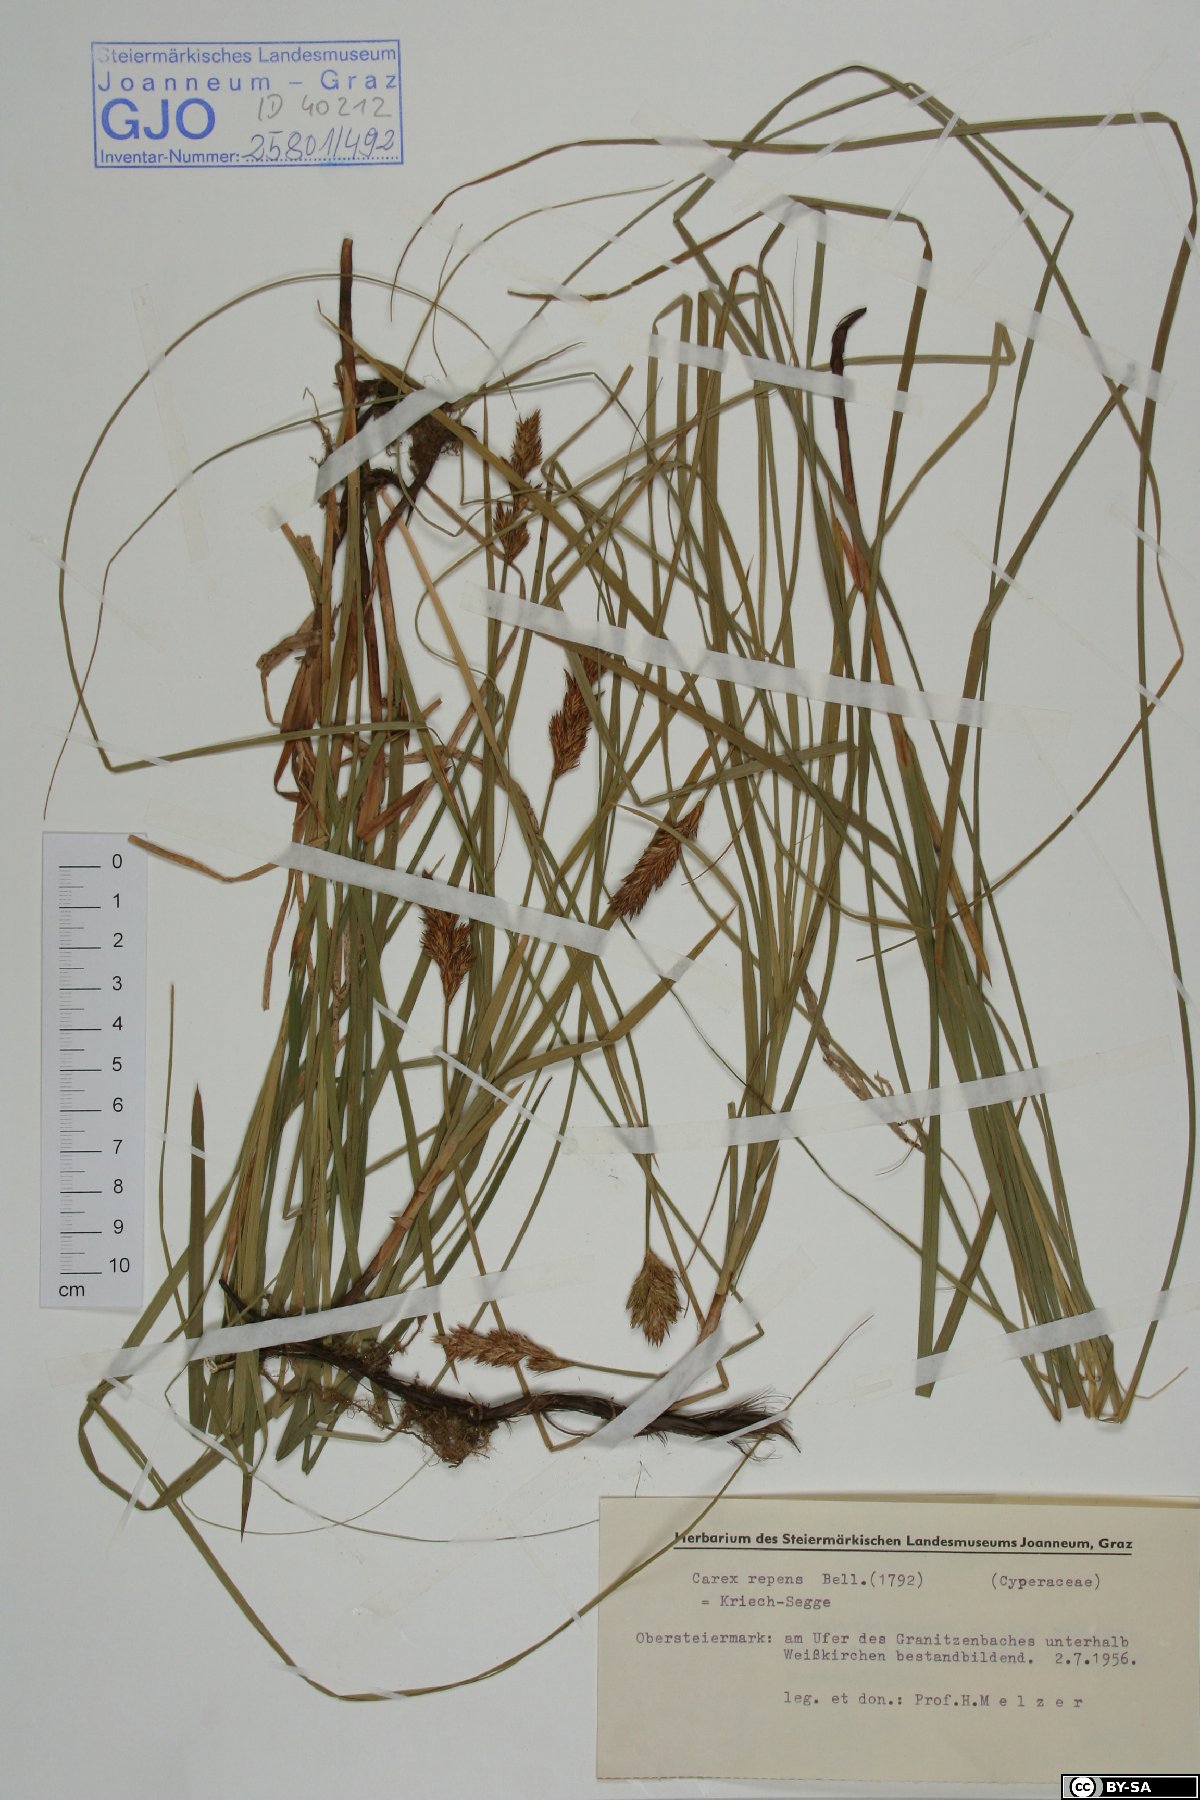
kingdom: Plantae
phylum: Tracheophyta
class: Liliopsida
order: Poales
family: Cyperaceae
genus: Carex
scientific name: Carex repens
